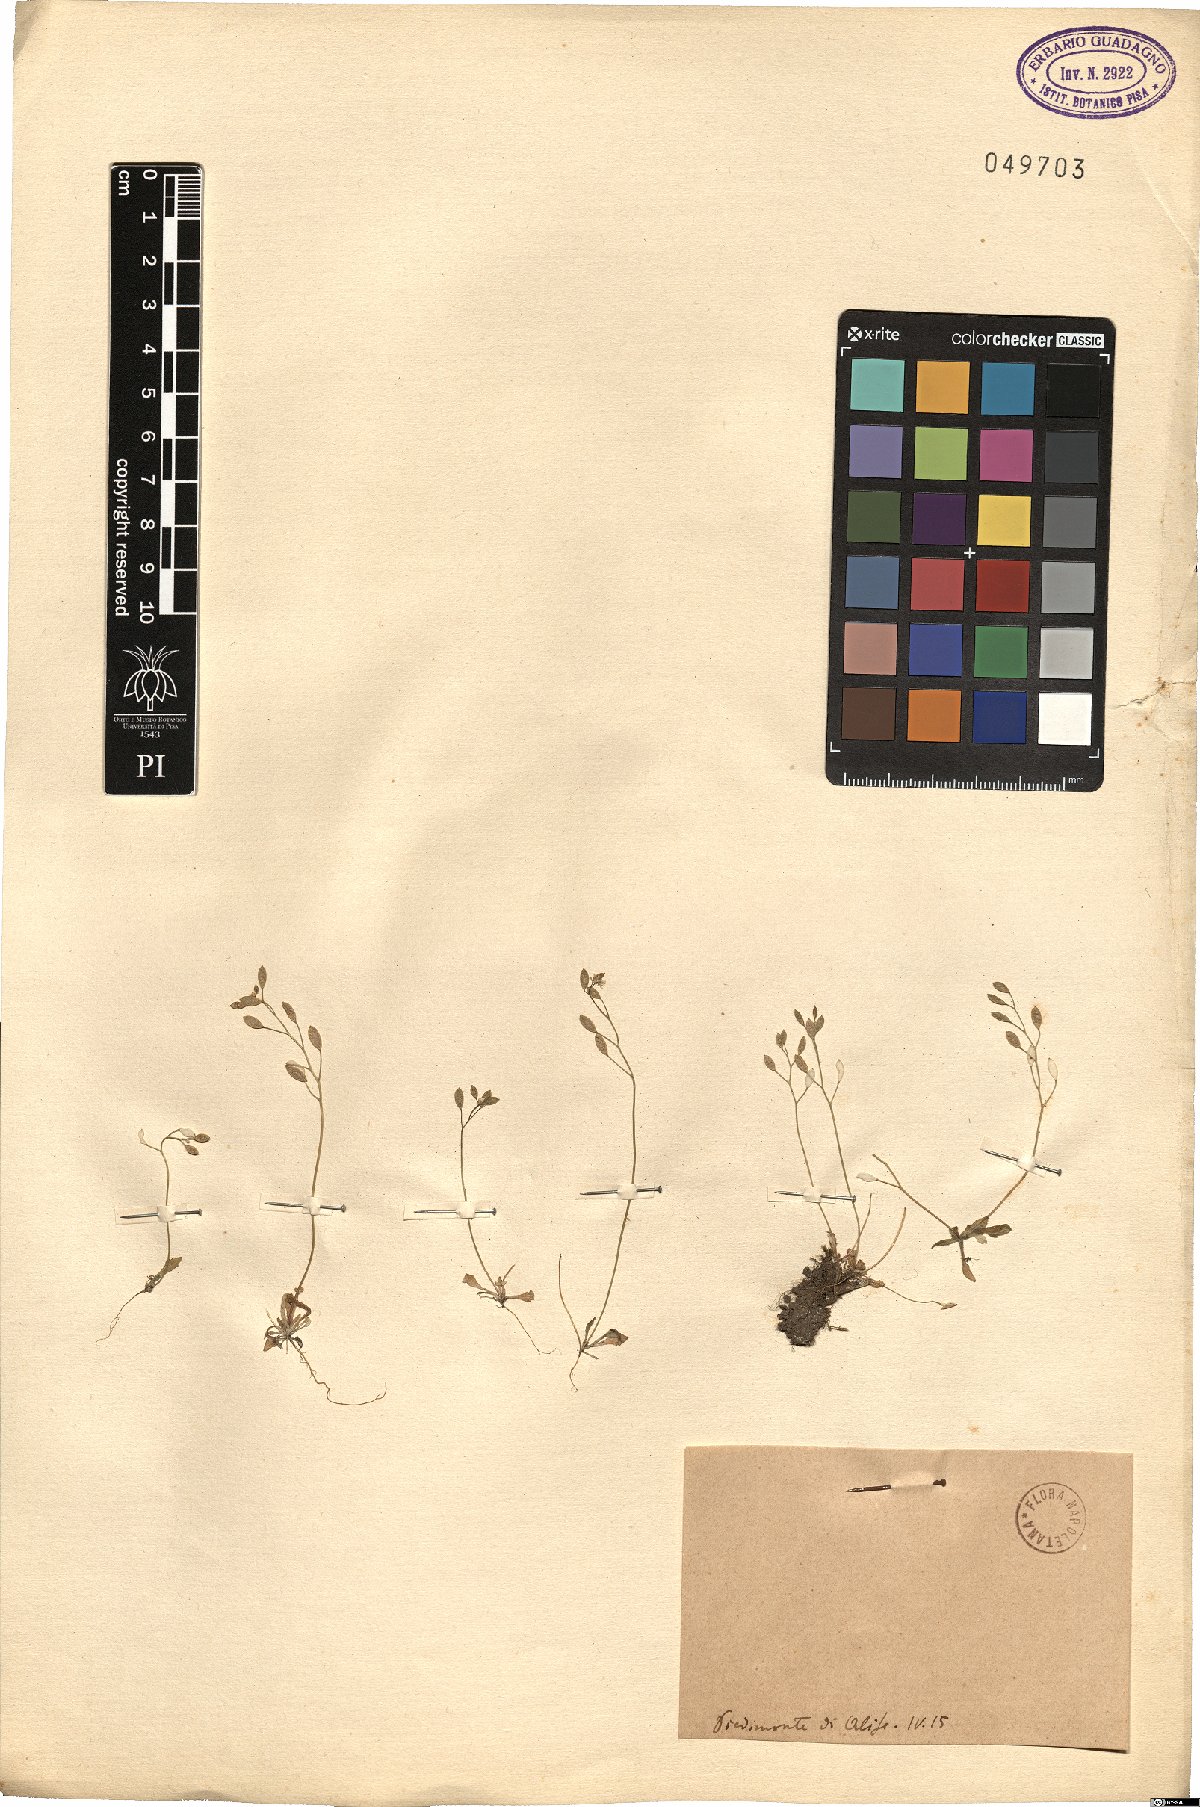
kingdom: Plantae
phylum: Tracheophyta
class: Magnoliopsida
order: Brassicales
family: Brassicaceae
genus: Cochlearia
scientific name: Cochlearia
